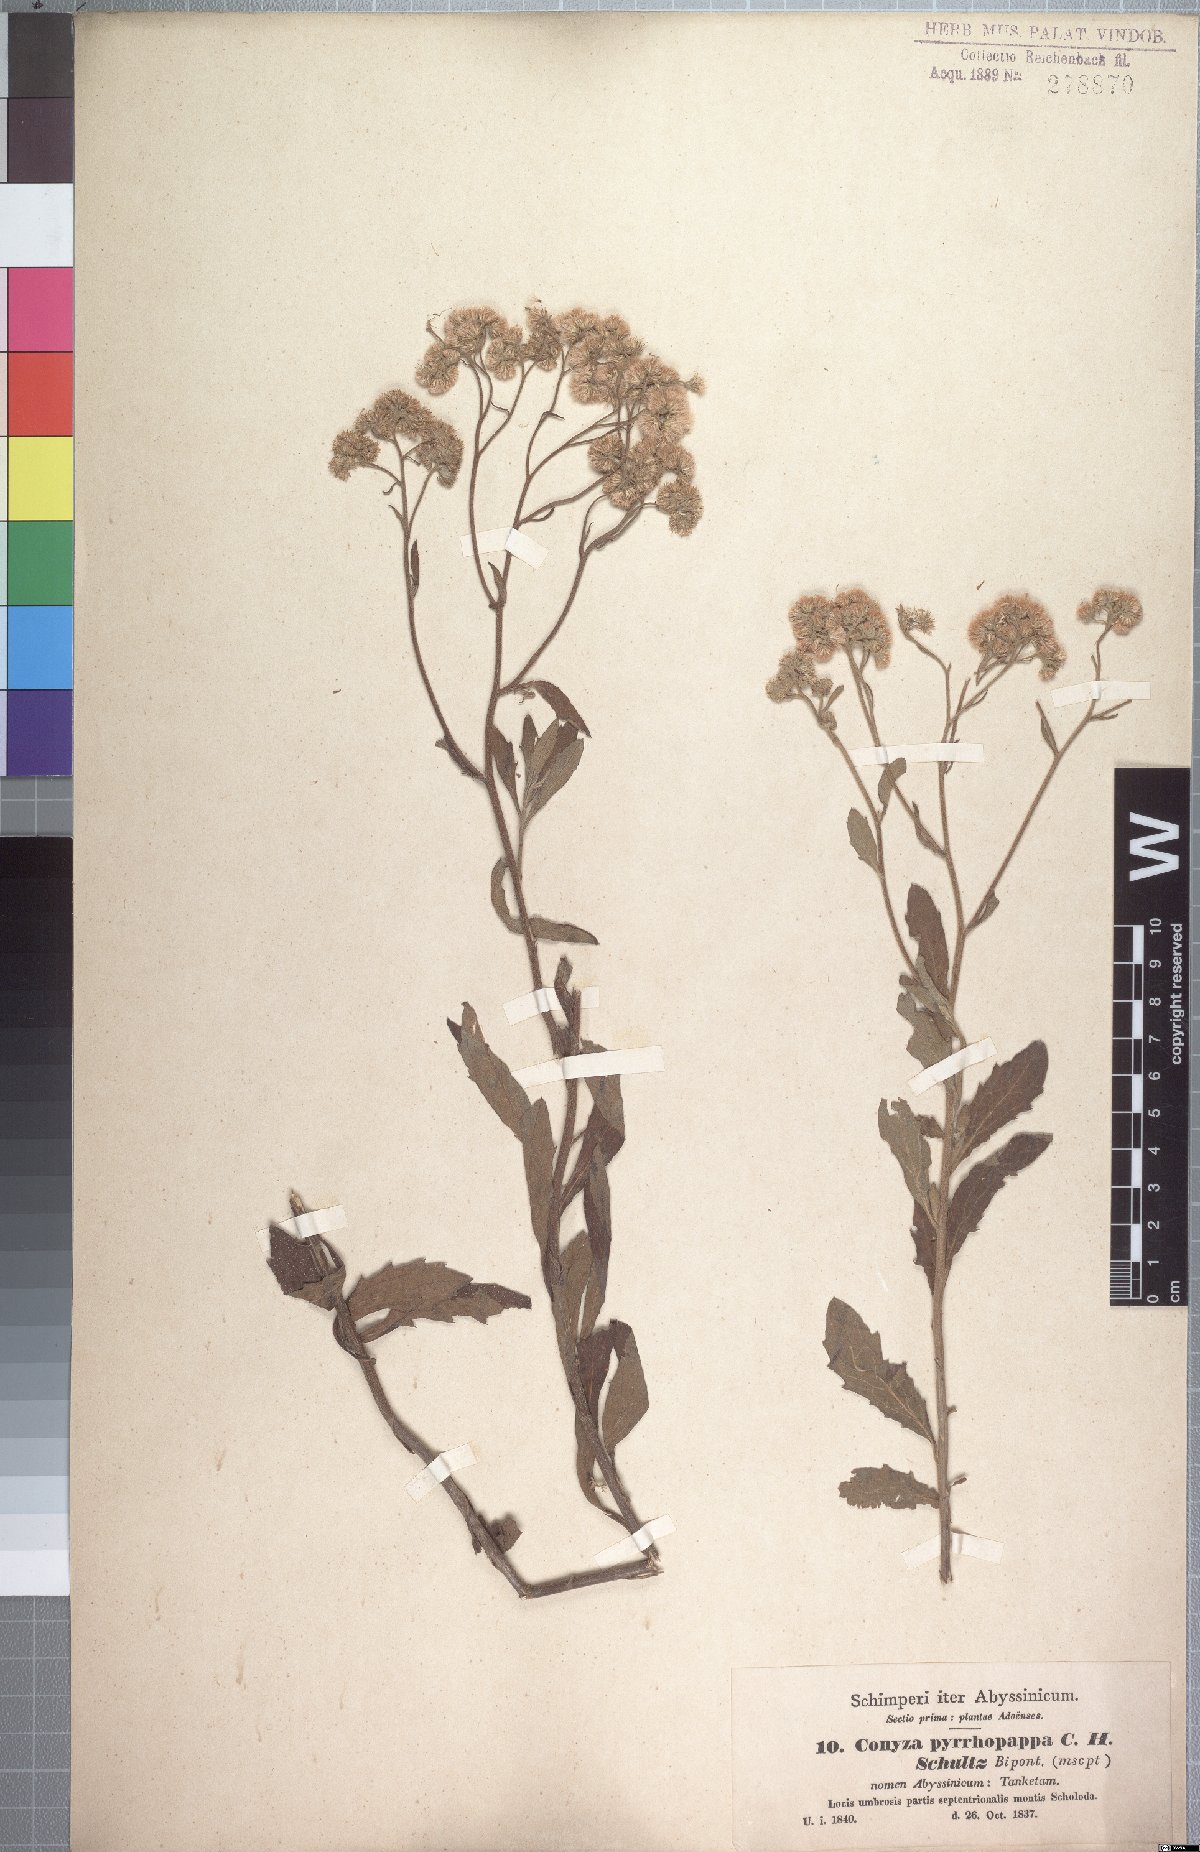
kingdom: Plantae
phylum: Tracheophyta
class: Magnoliopsida
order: Asterales
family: Asteraceae
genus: Microglossa
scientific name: Microglossa pyrrhopappa
